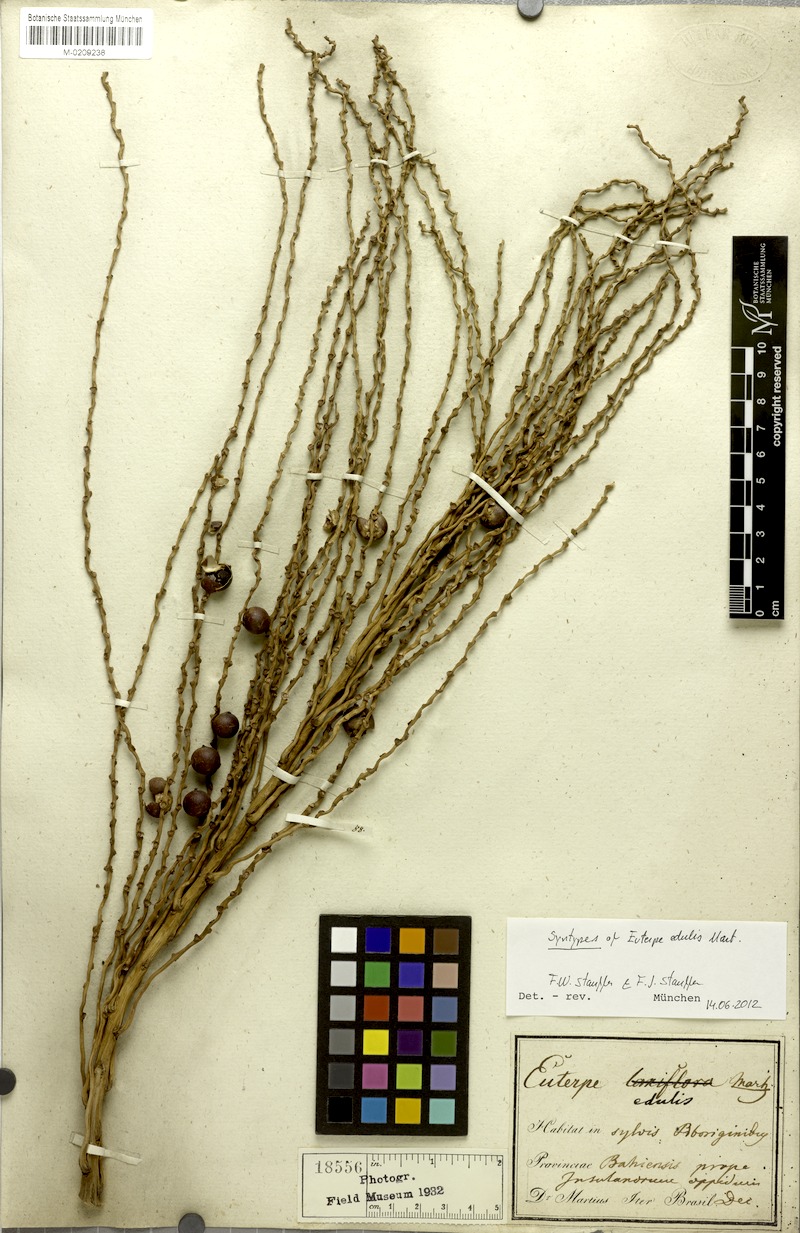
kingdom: Plantae
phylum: Tracheophyta
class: Liliopsida
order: Arecales
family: Arecaceae
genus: Euterpe
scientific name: Euterpe edulis
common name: Assai palm
